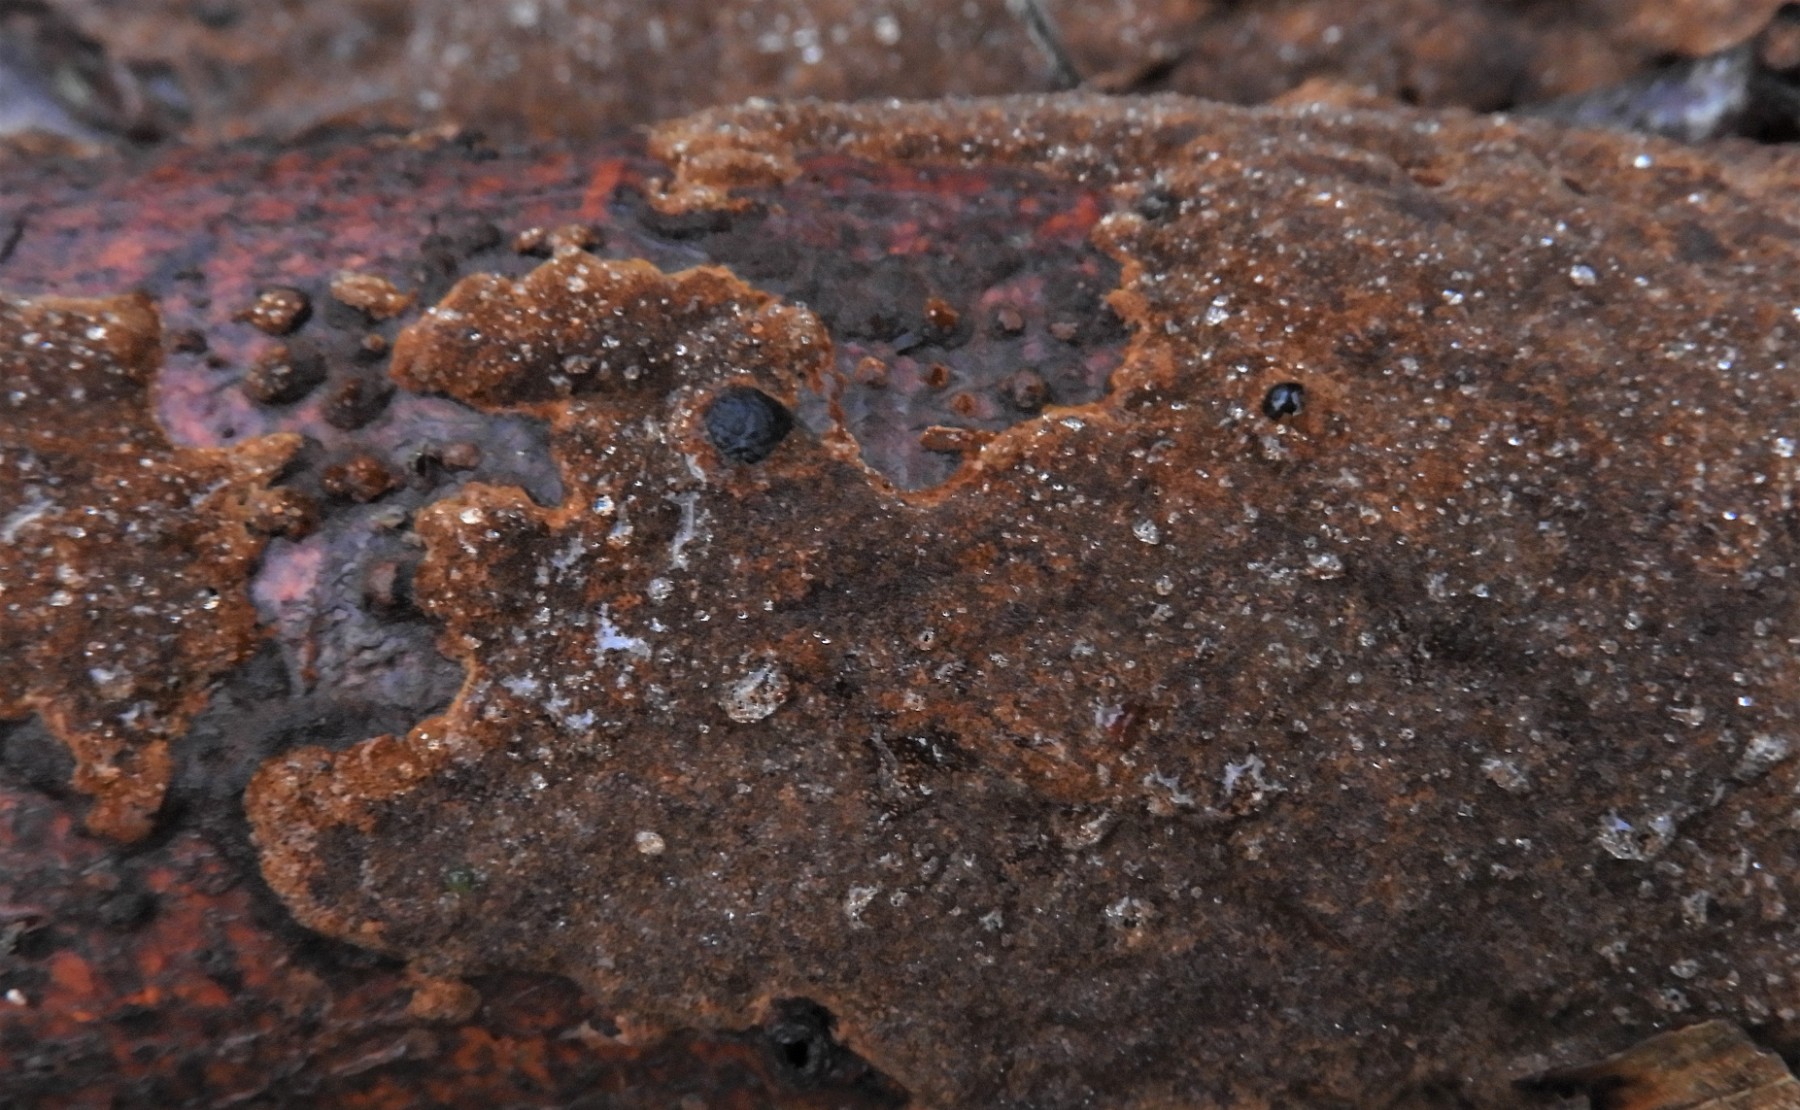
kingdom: Fungi
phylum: Basidiomycota
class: Agaricomycetes
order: Hymenochaetales
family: Hymenochaetaceae
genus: Fuscoporia
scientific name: Fuscoporia ferruginosa
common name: rustbrun ildporesvamp
